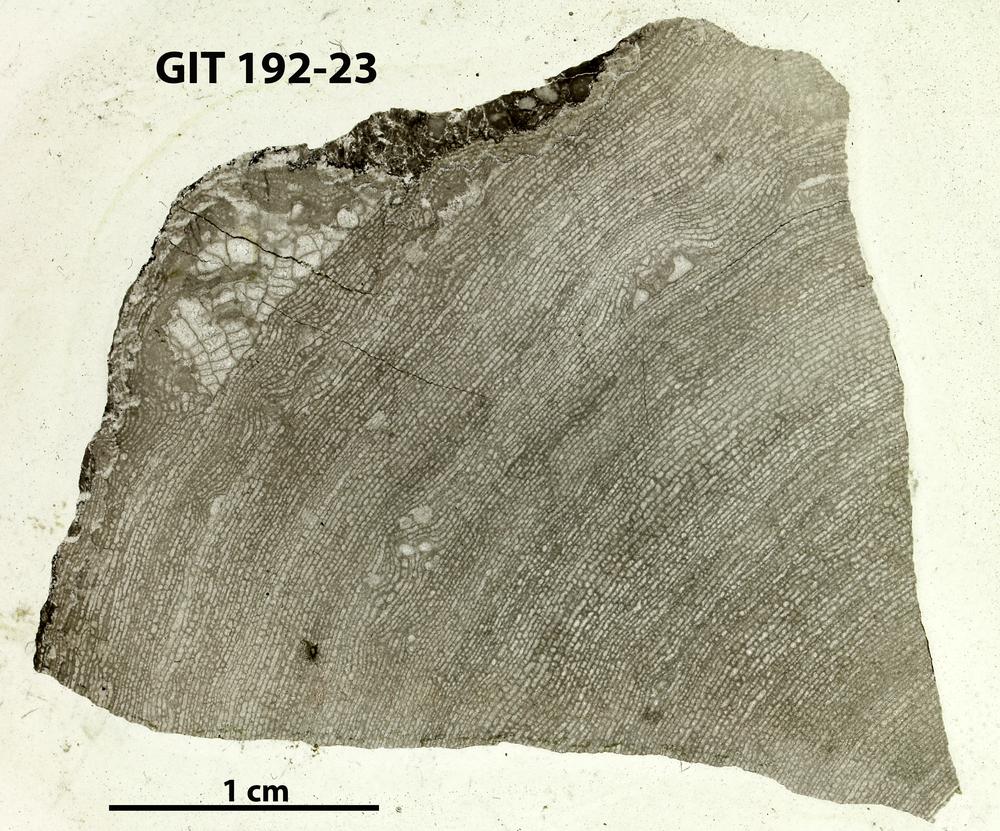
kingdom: Animalia
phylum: Porifera
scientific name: Porifera
